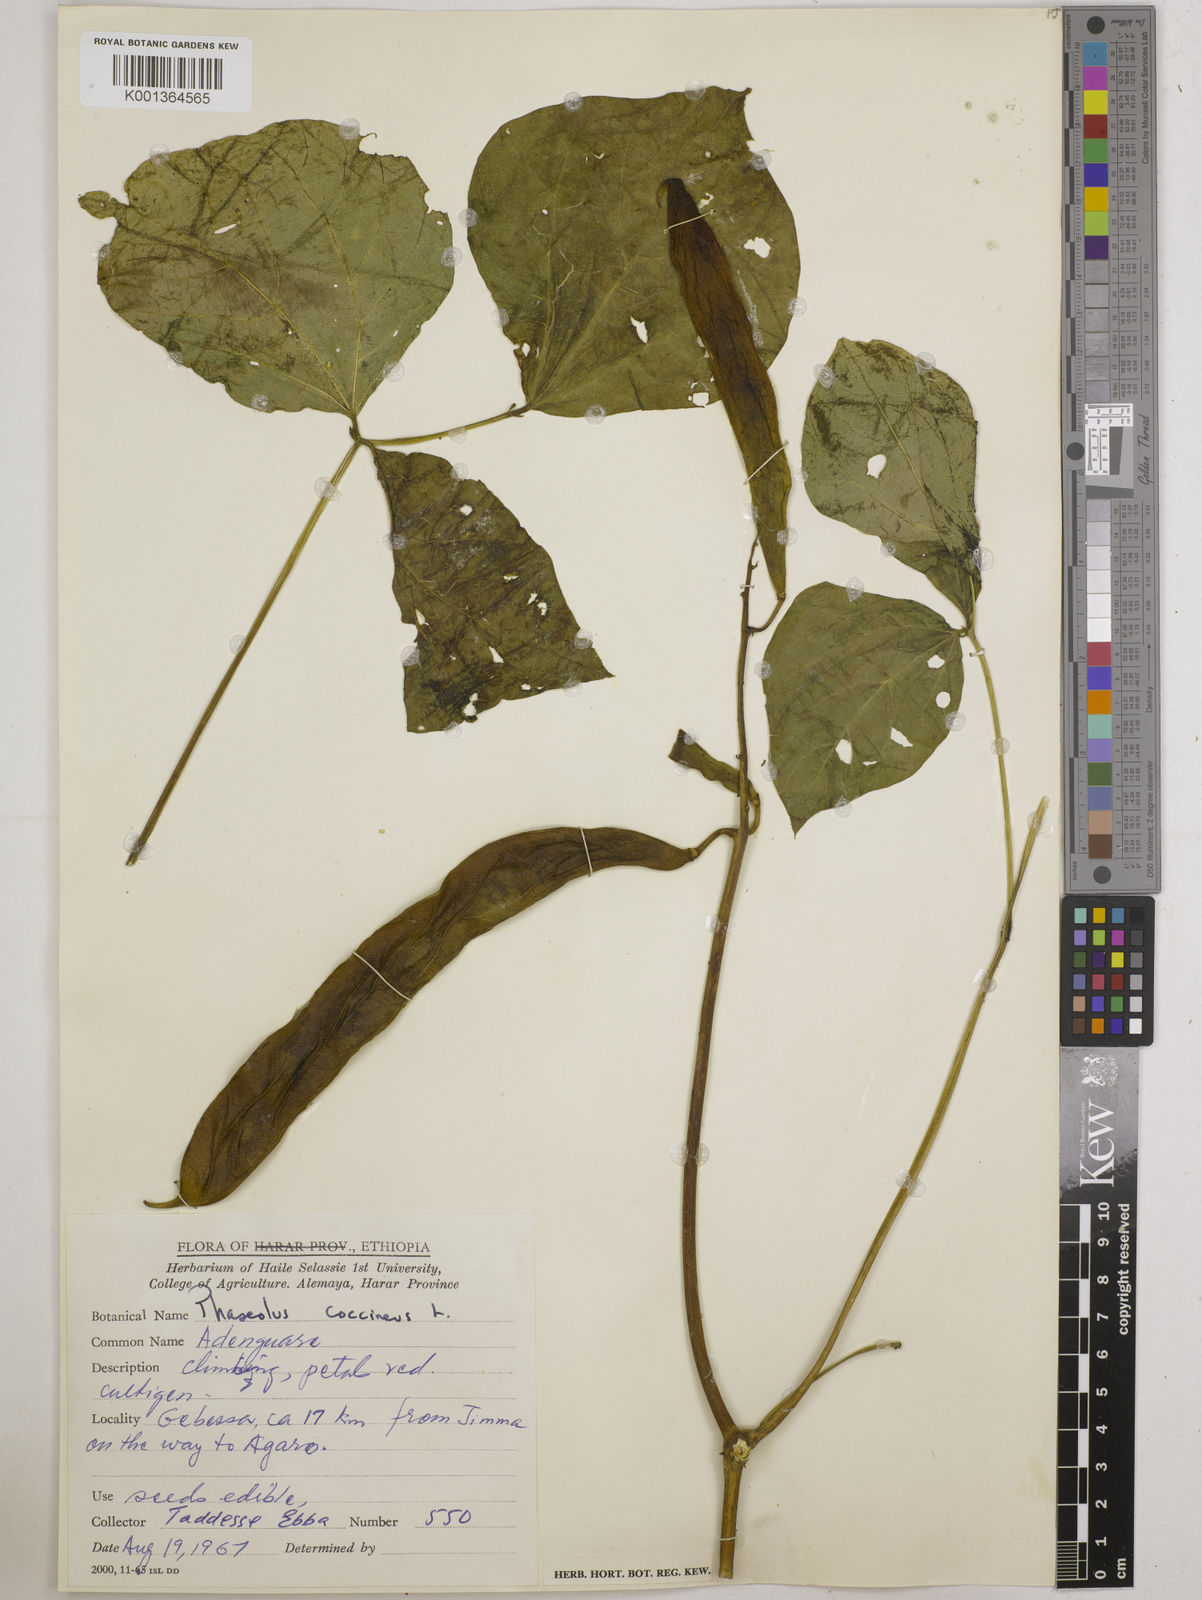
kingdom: Plantae
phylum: Tracheophyta
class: Magnoliopsida
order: Fabales
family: Fabaceae
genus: Phaseolus
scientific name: Phaseolus coccineus
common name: Runner bean
